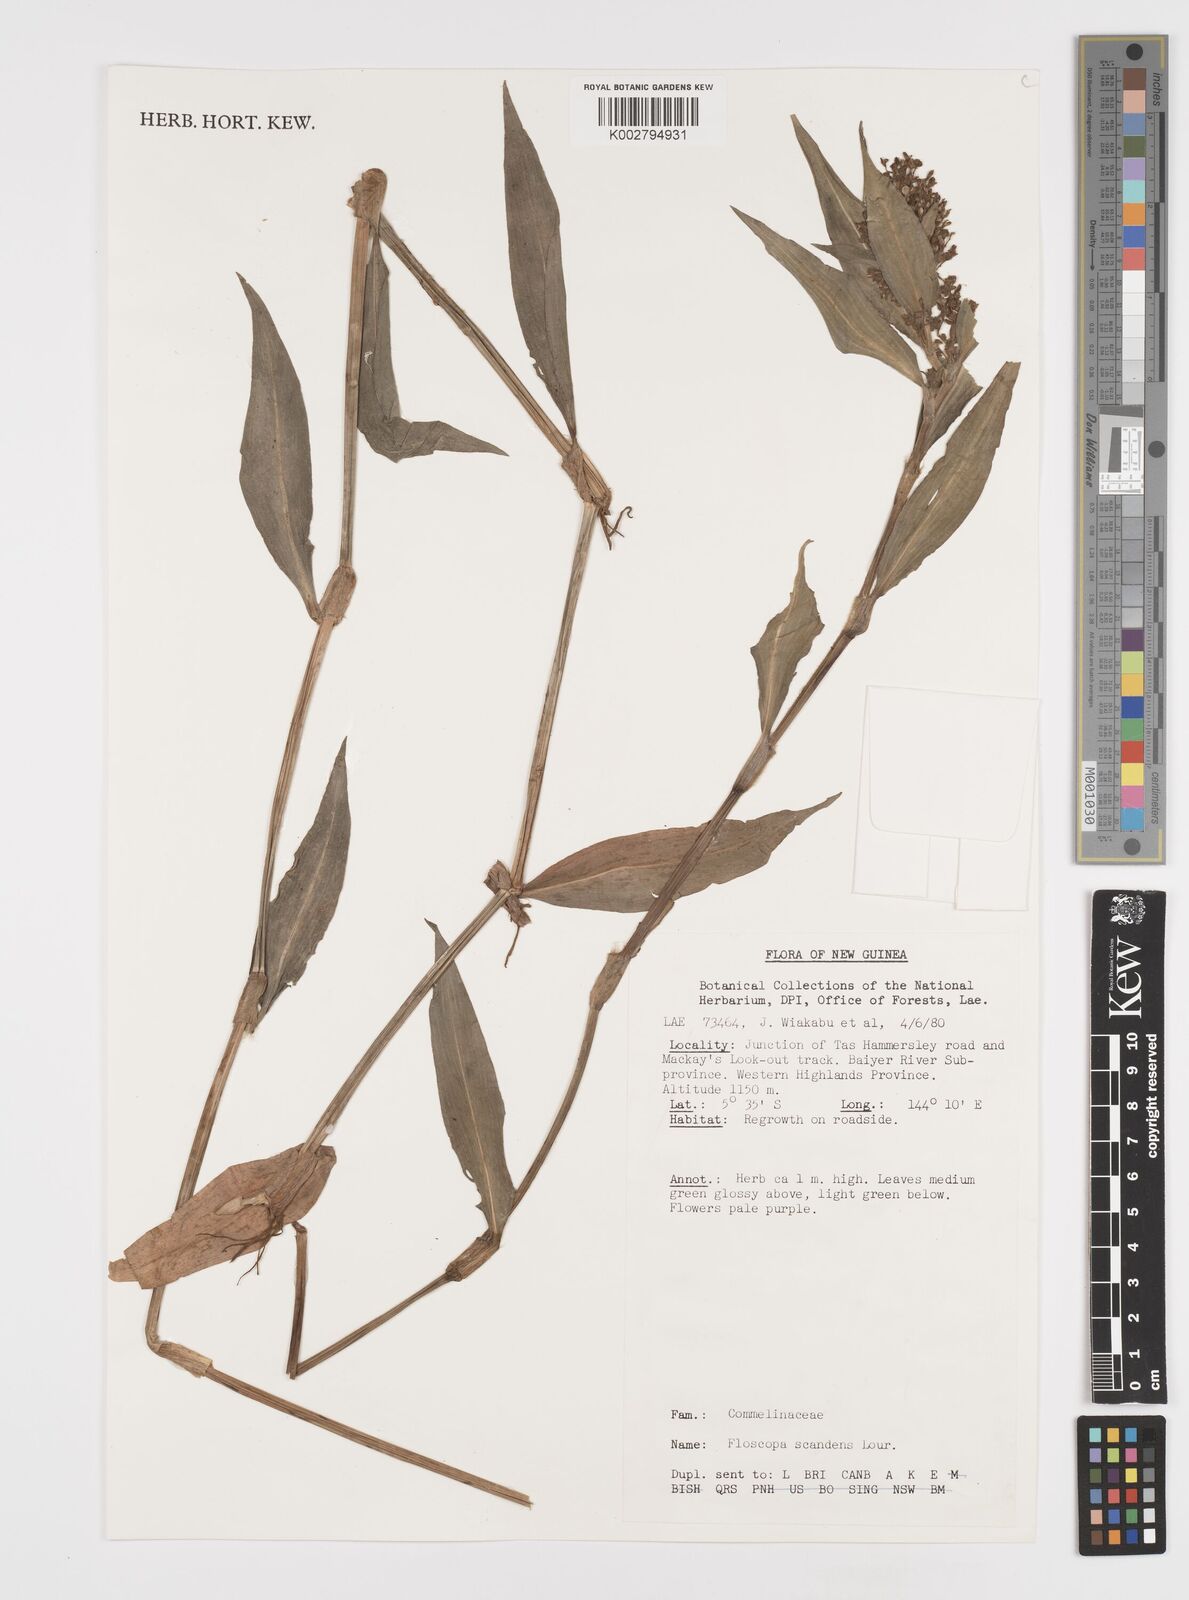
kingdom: Plantae
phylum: Tracheophyta
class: Liliopsida
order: Commelinales
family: Commelinaceae
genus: Floscopa
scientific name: Floscopa scandens
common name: Climbing flower cup
